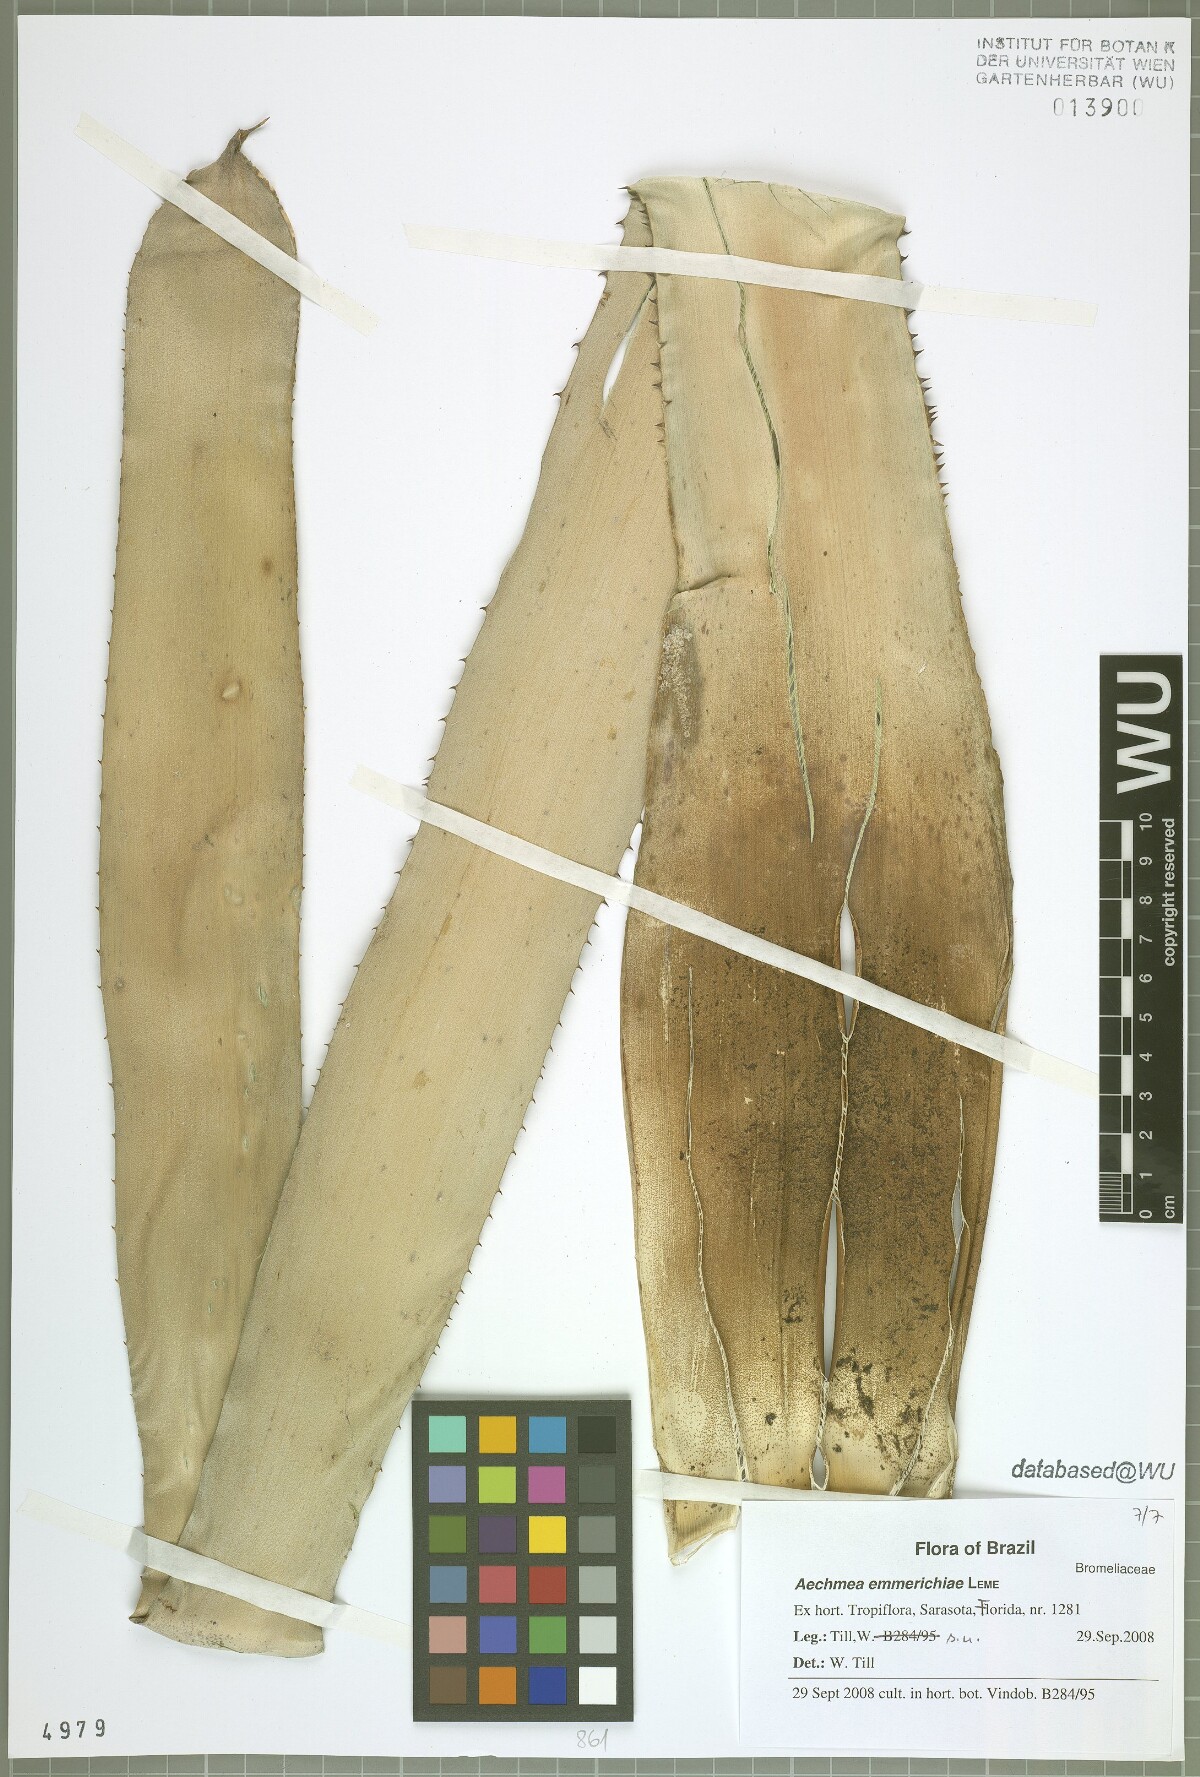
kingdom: Plantae
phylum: Tracheophyta
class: Liliopsida
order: Poales
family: Bromeliaceae
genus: Aechmea
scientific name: Aechmea emmerichiae
